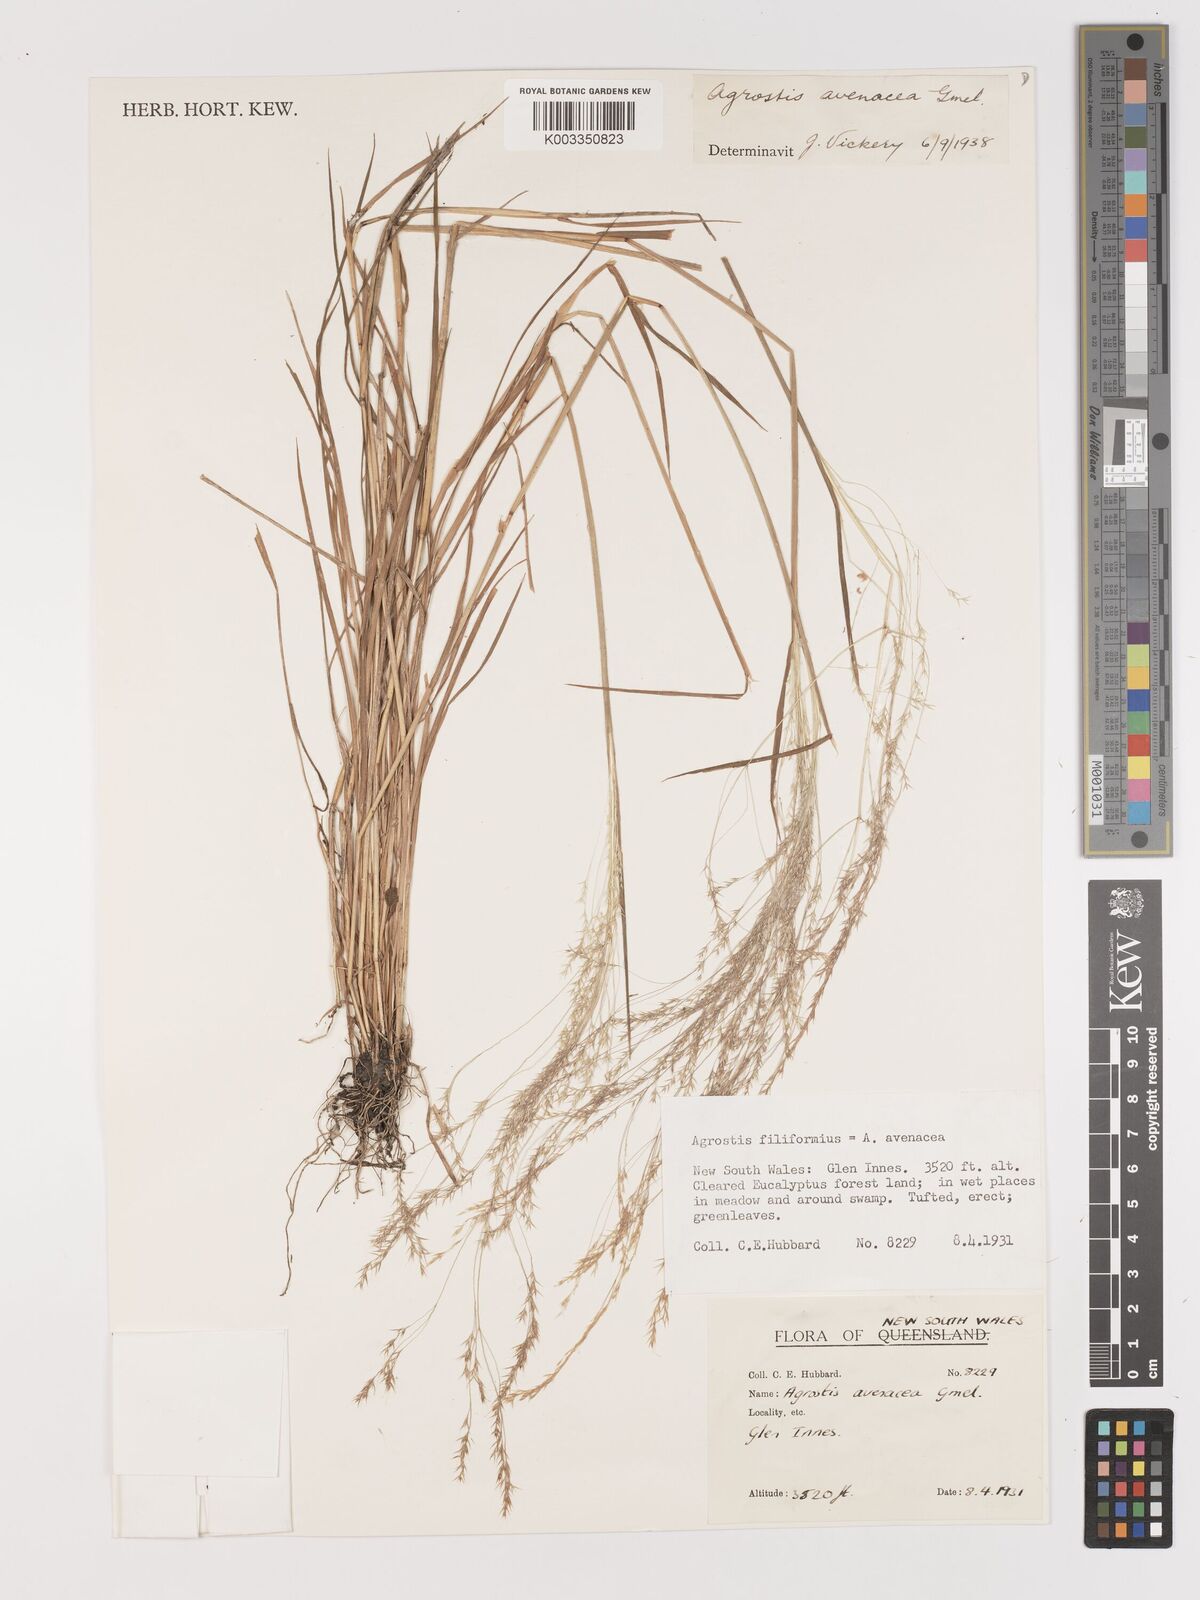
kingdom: Plantae
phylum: Tracheophyta
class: Liliopsida
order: Poales
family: Poaceae
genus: Lachnagrostis
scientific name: Lachnagrostis filiformis
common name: Bentgrass
